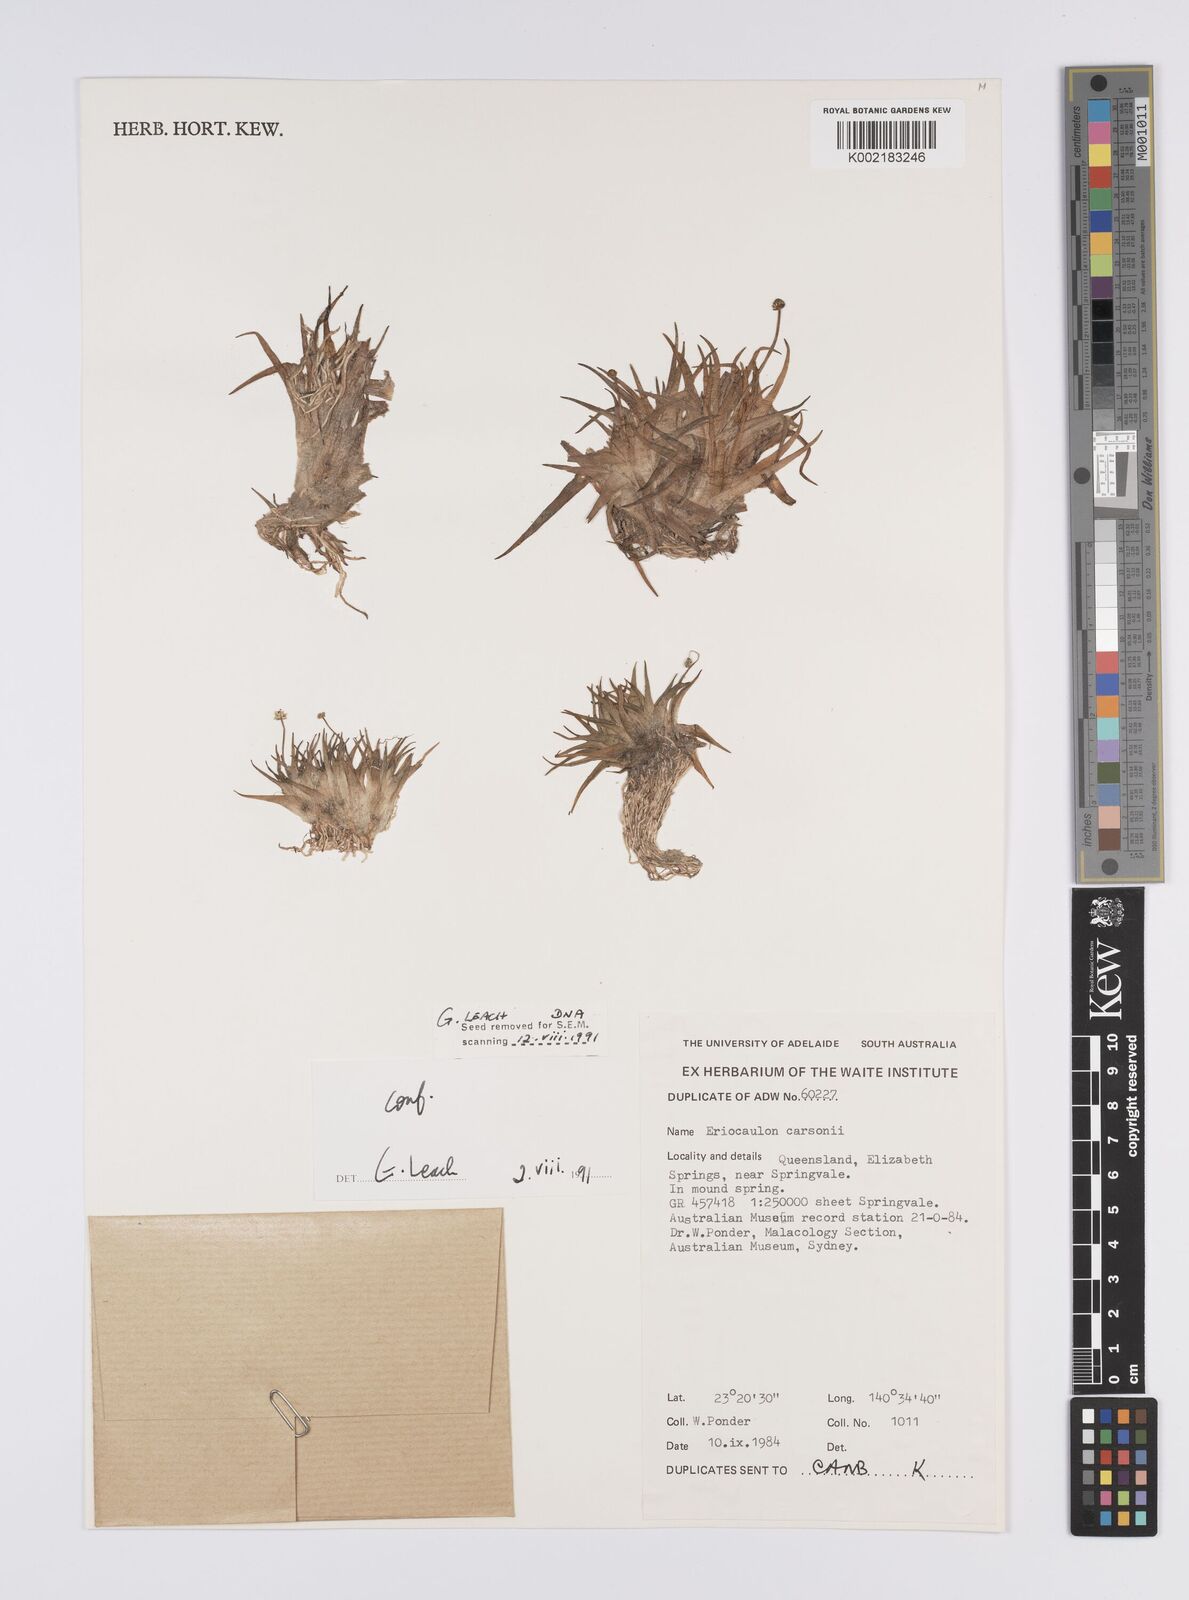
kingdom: Plantae
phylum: Tracheophyta
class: Liliopsida
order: Poales
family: Eriocaulaceae
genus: Eriocaulon
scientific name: Eriocaulon carsonii
